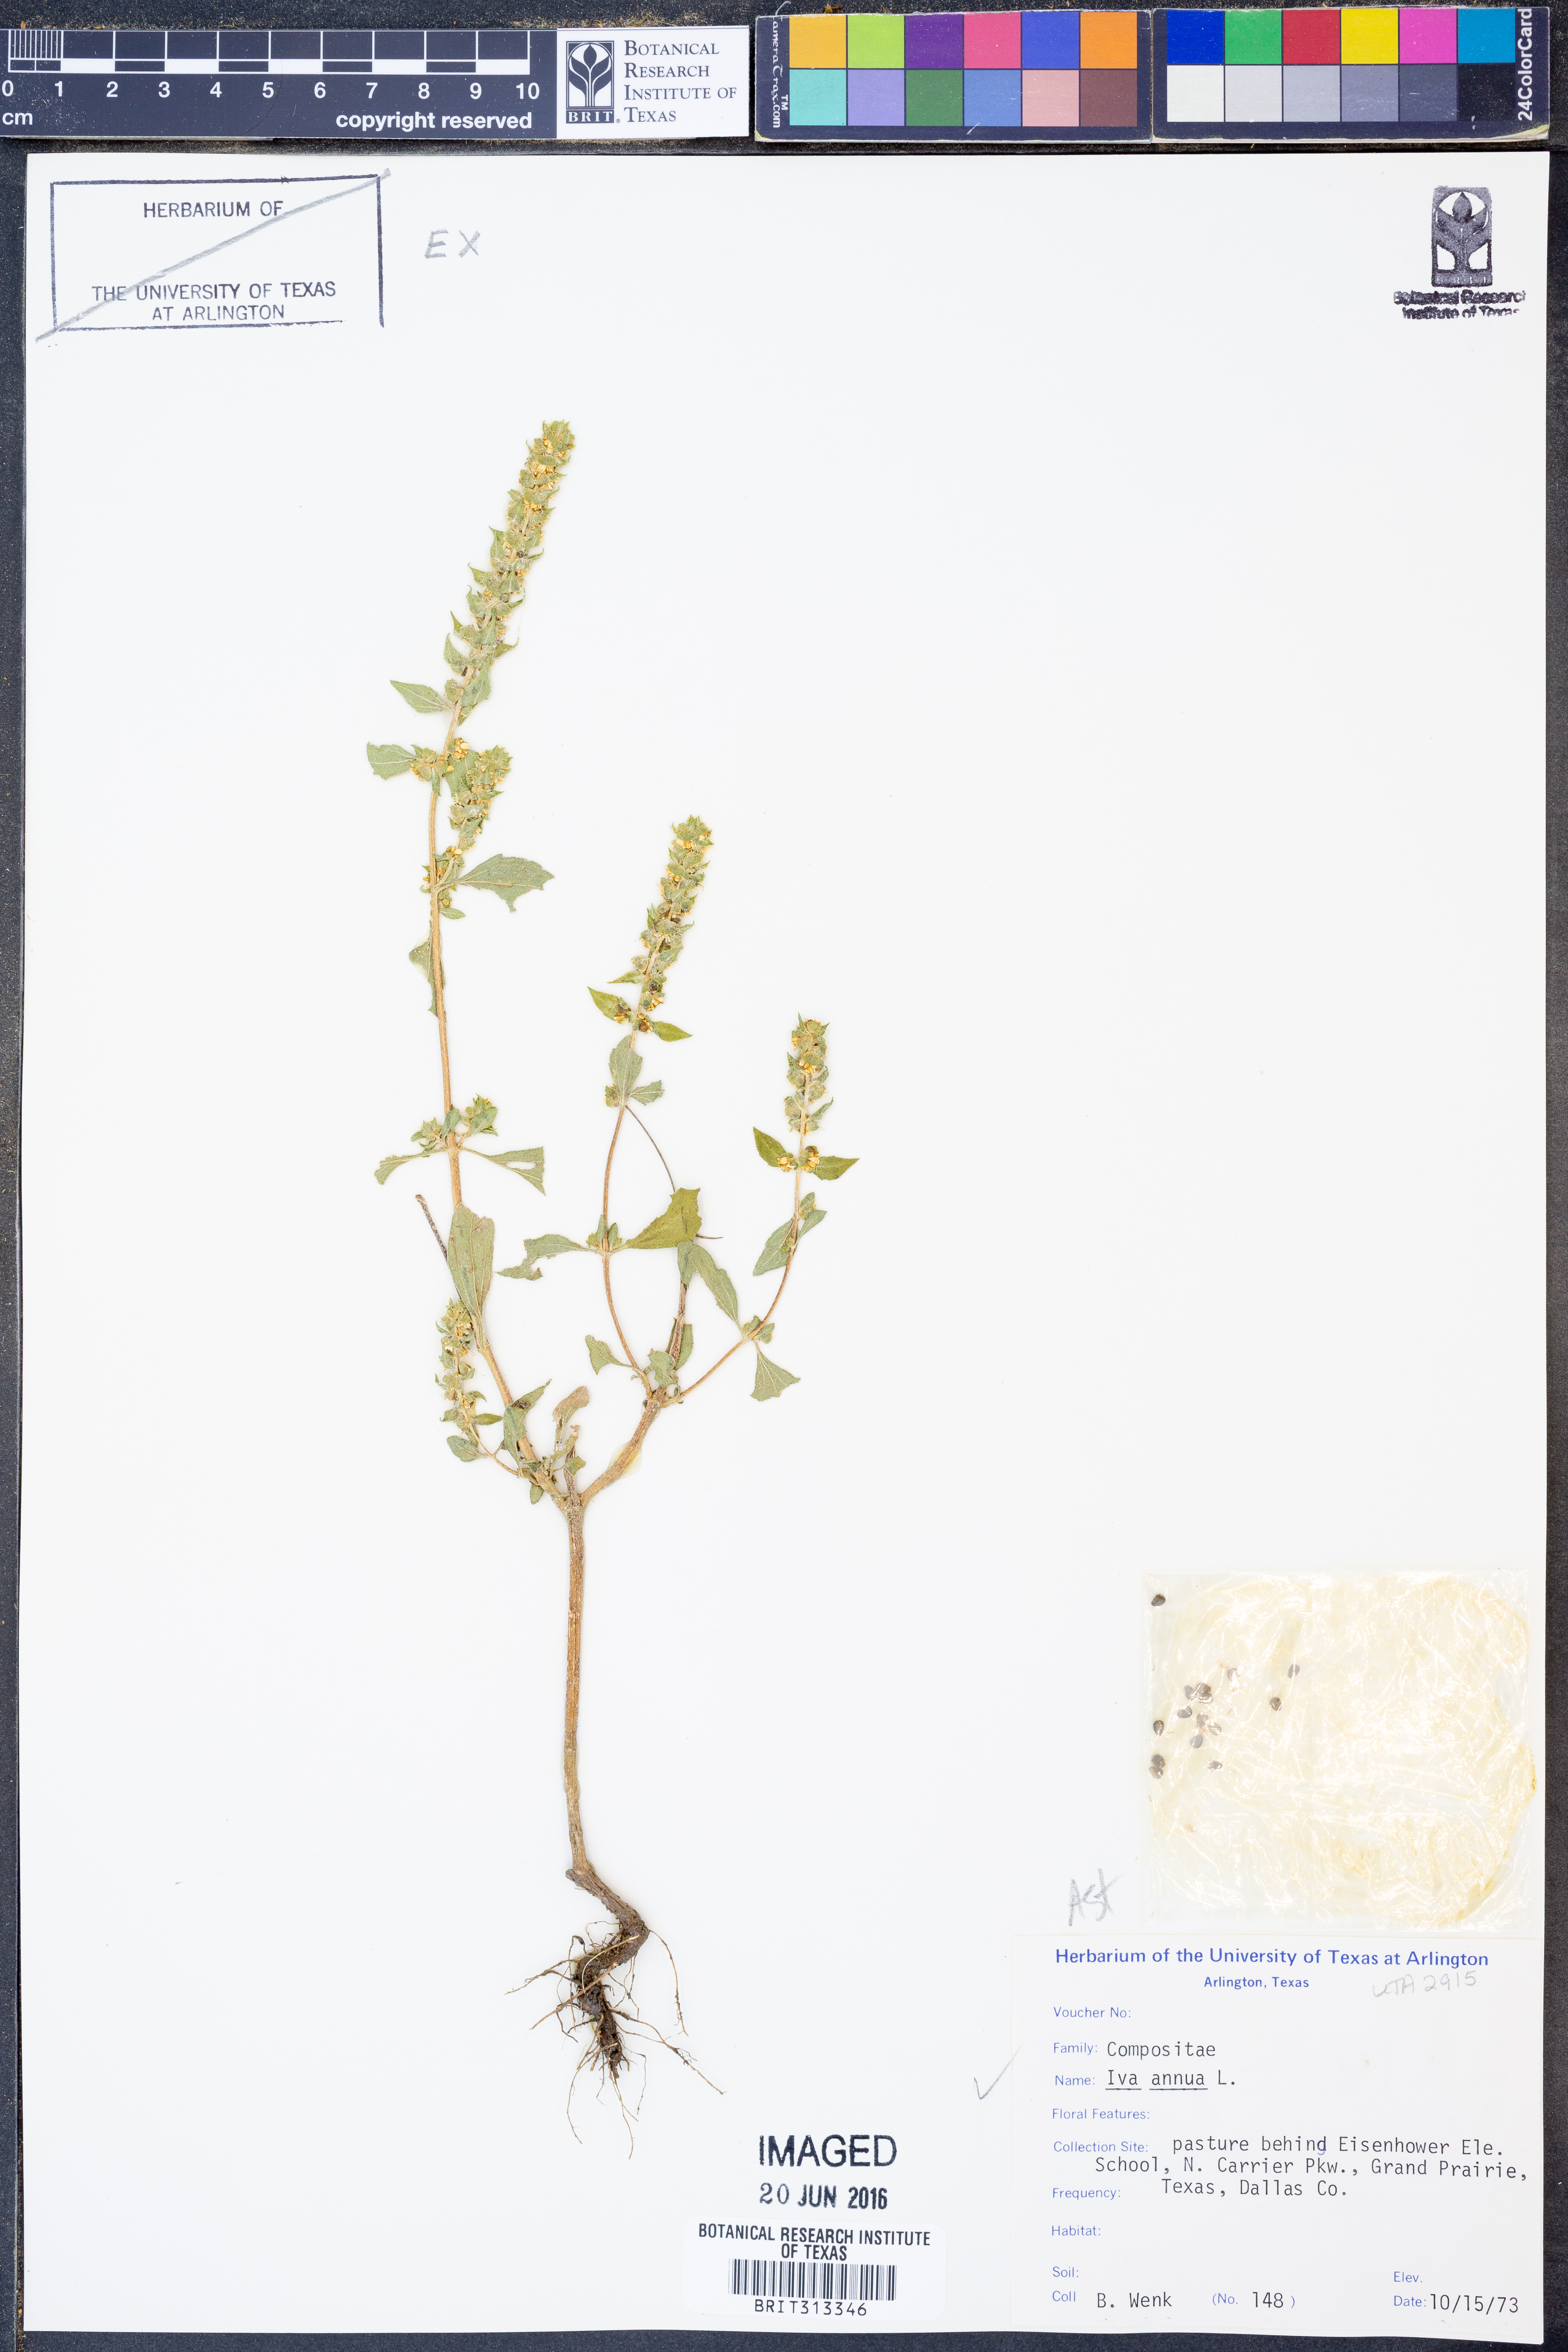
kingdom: Plantae
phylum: Tracheophyta
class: Magnoliopsida
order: Asterales
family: Asteraceae
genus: Iva
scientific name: Iva annua
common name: Marsh-elder
